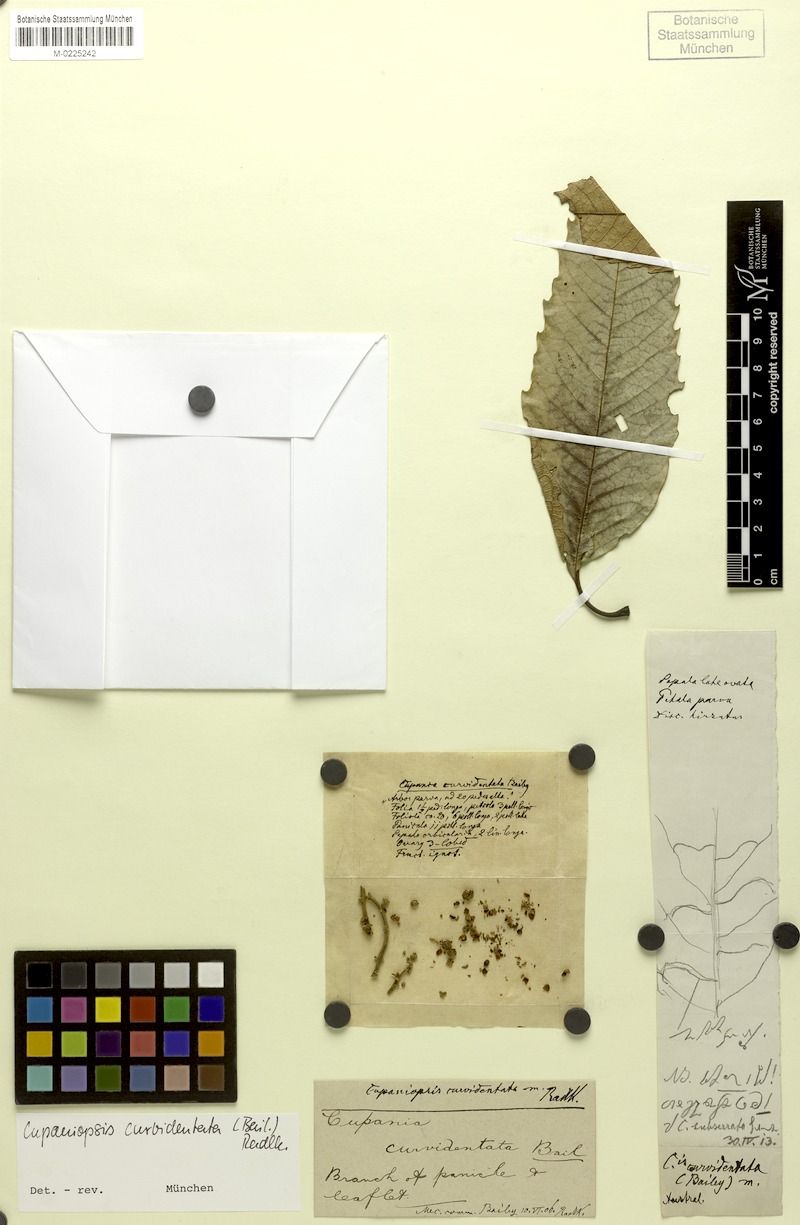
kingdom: Plantae
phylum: Tracheophyta
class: Magnoliopsida
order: Sapindales
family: Sapindaceae
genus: Cupaniopsis
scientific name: Cupaniopsis flagelliformis
